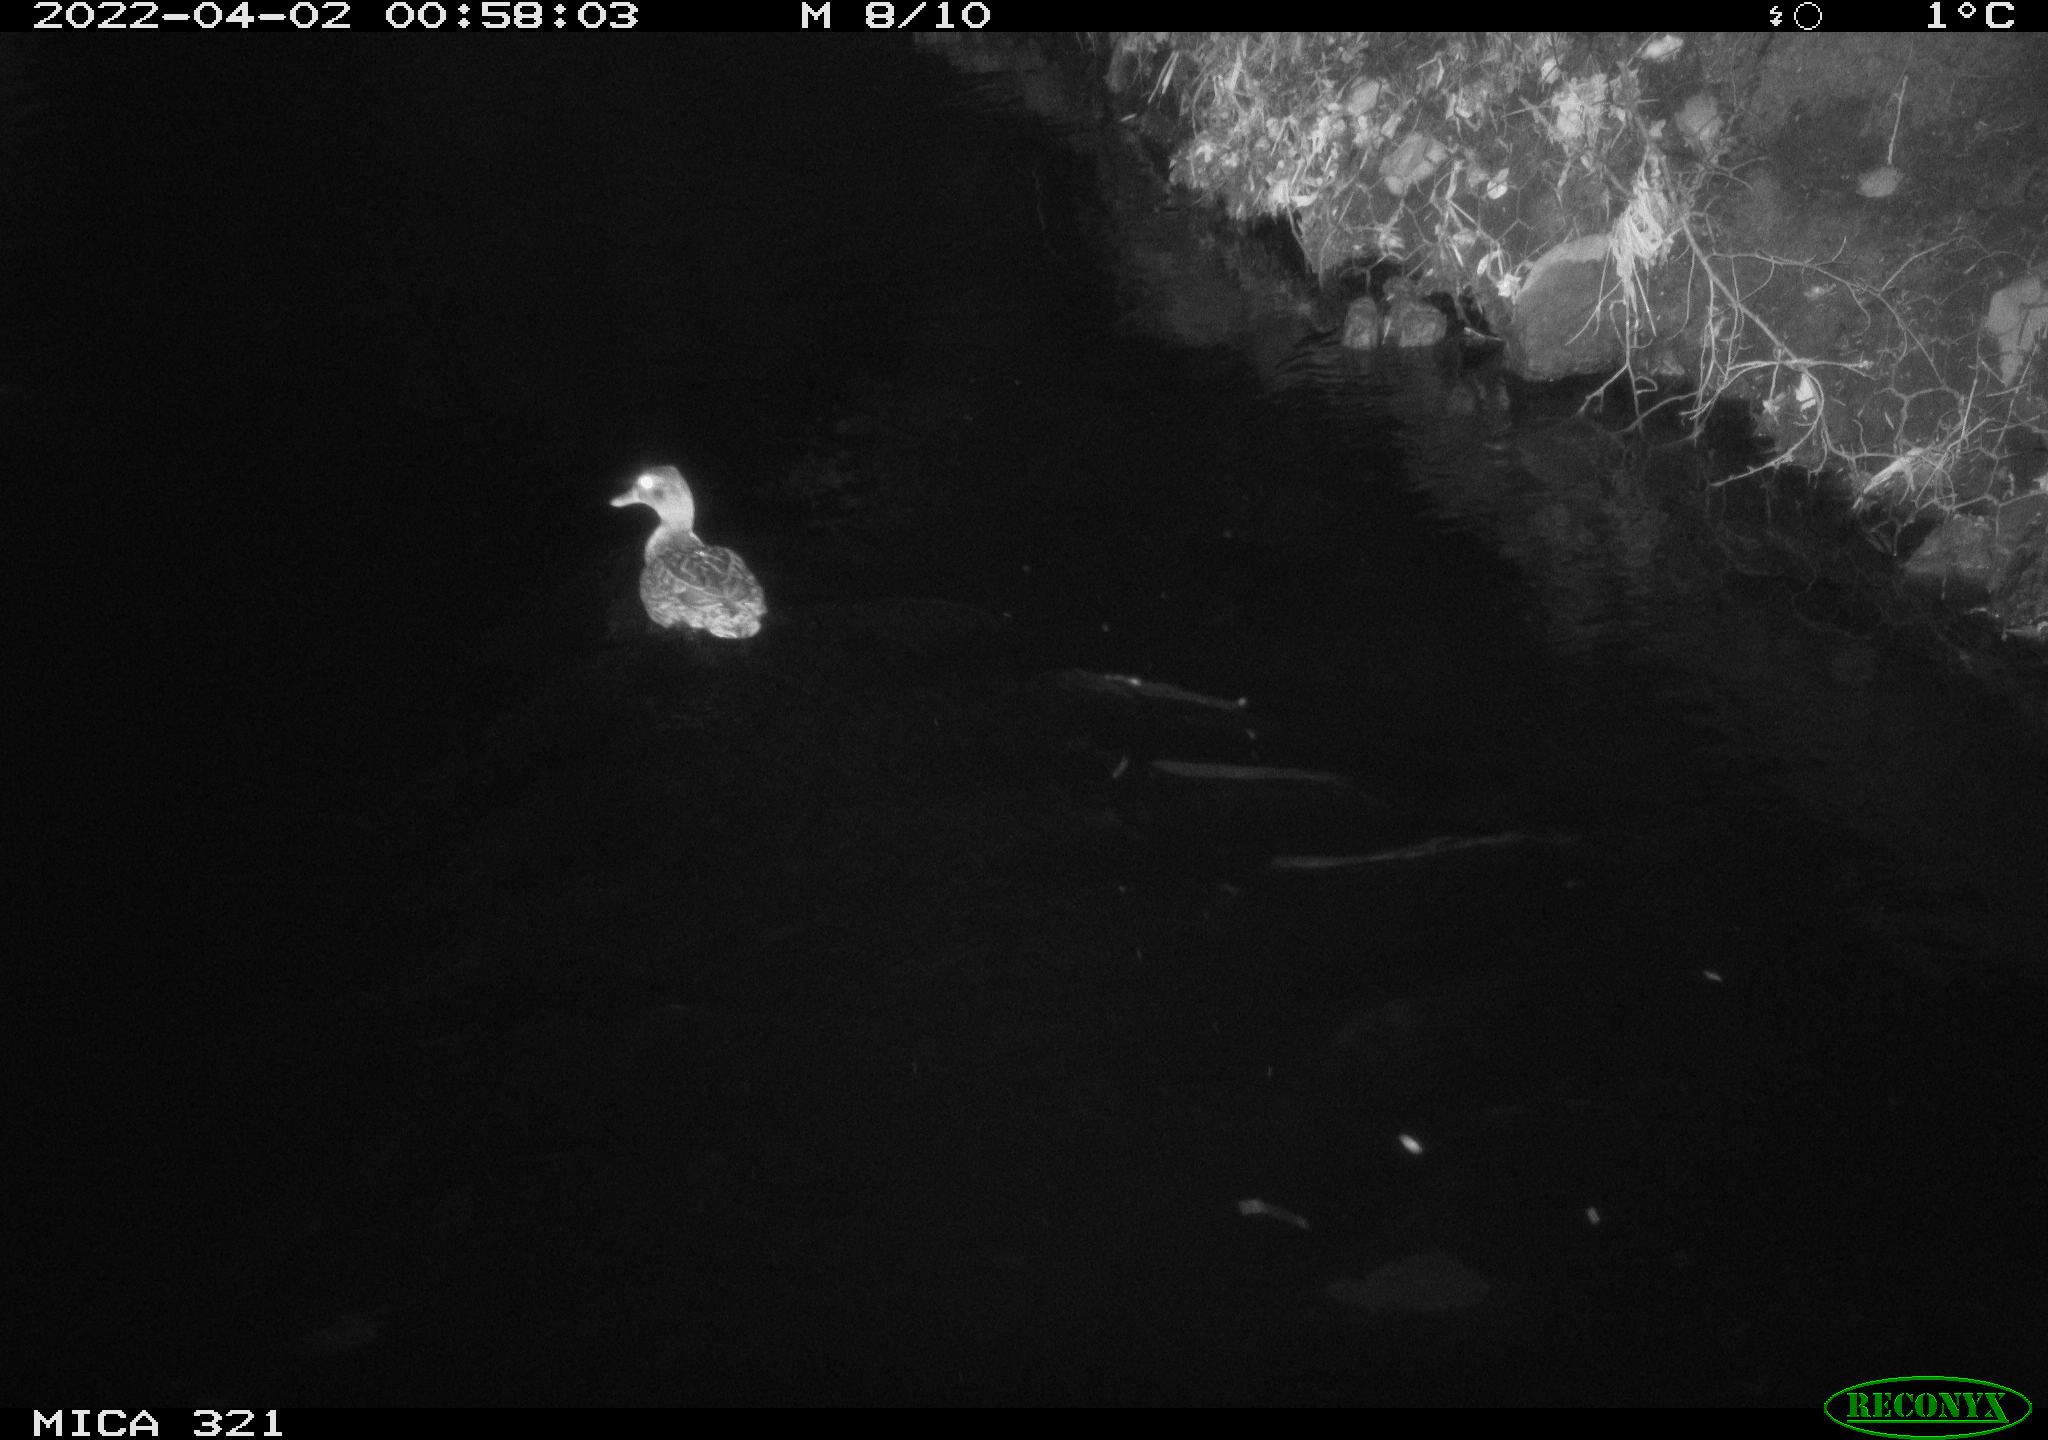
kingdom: Animalia
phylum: Chordata
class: Aves
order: Anseriformes
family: Anatidae
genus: Anas
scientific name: Anas platyrhynchos
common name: Mallard
